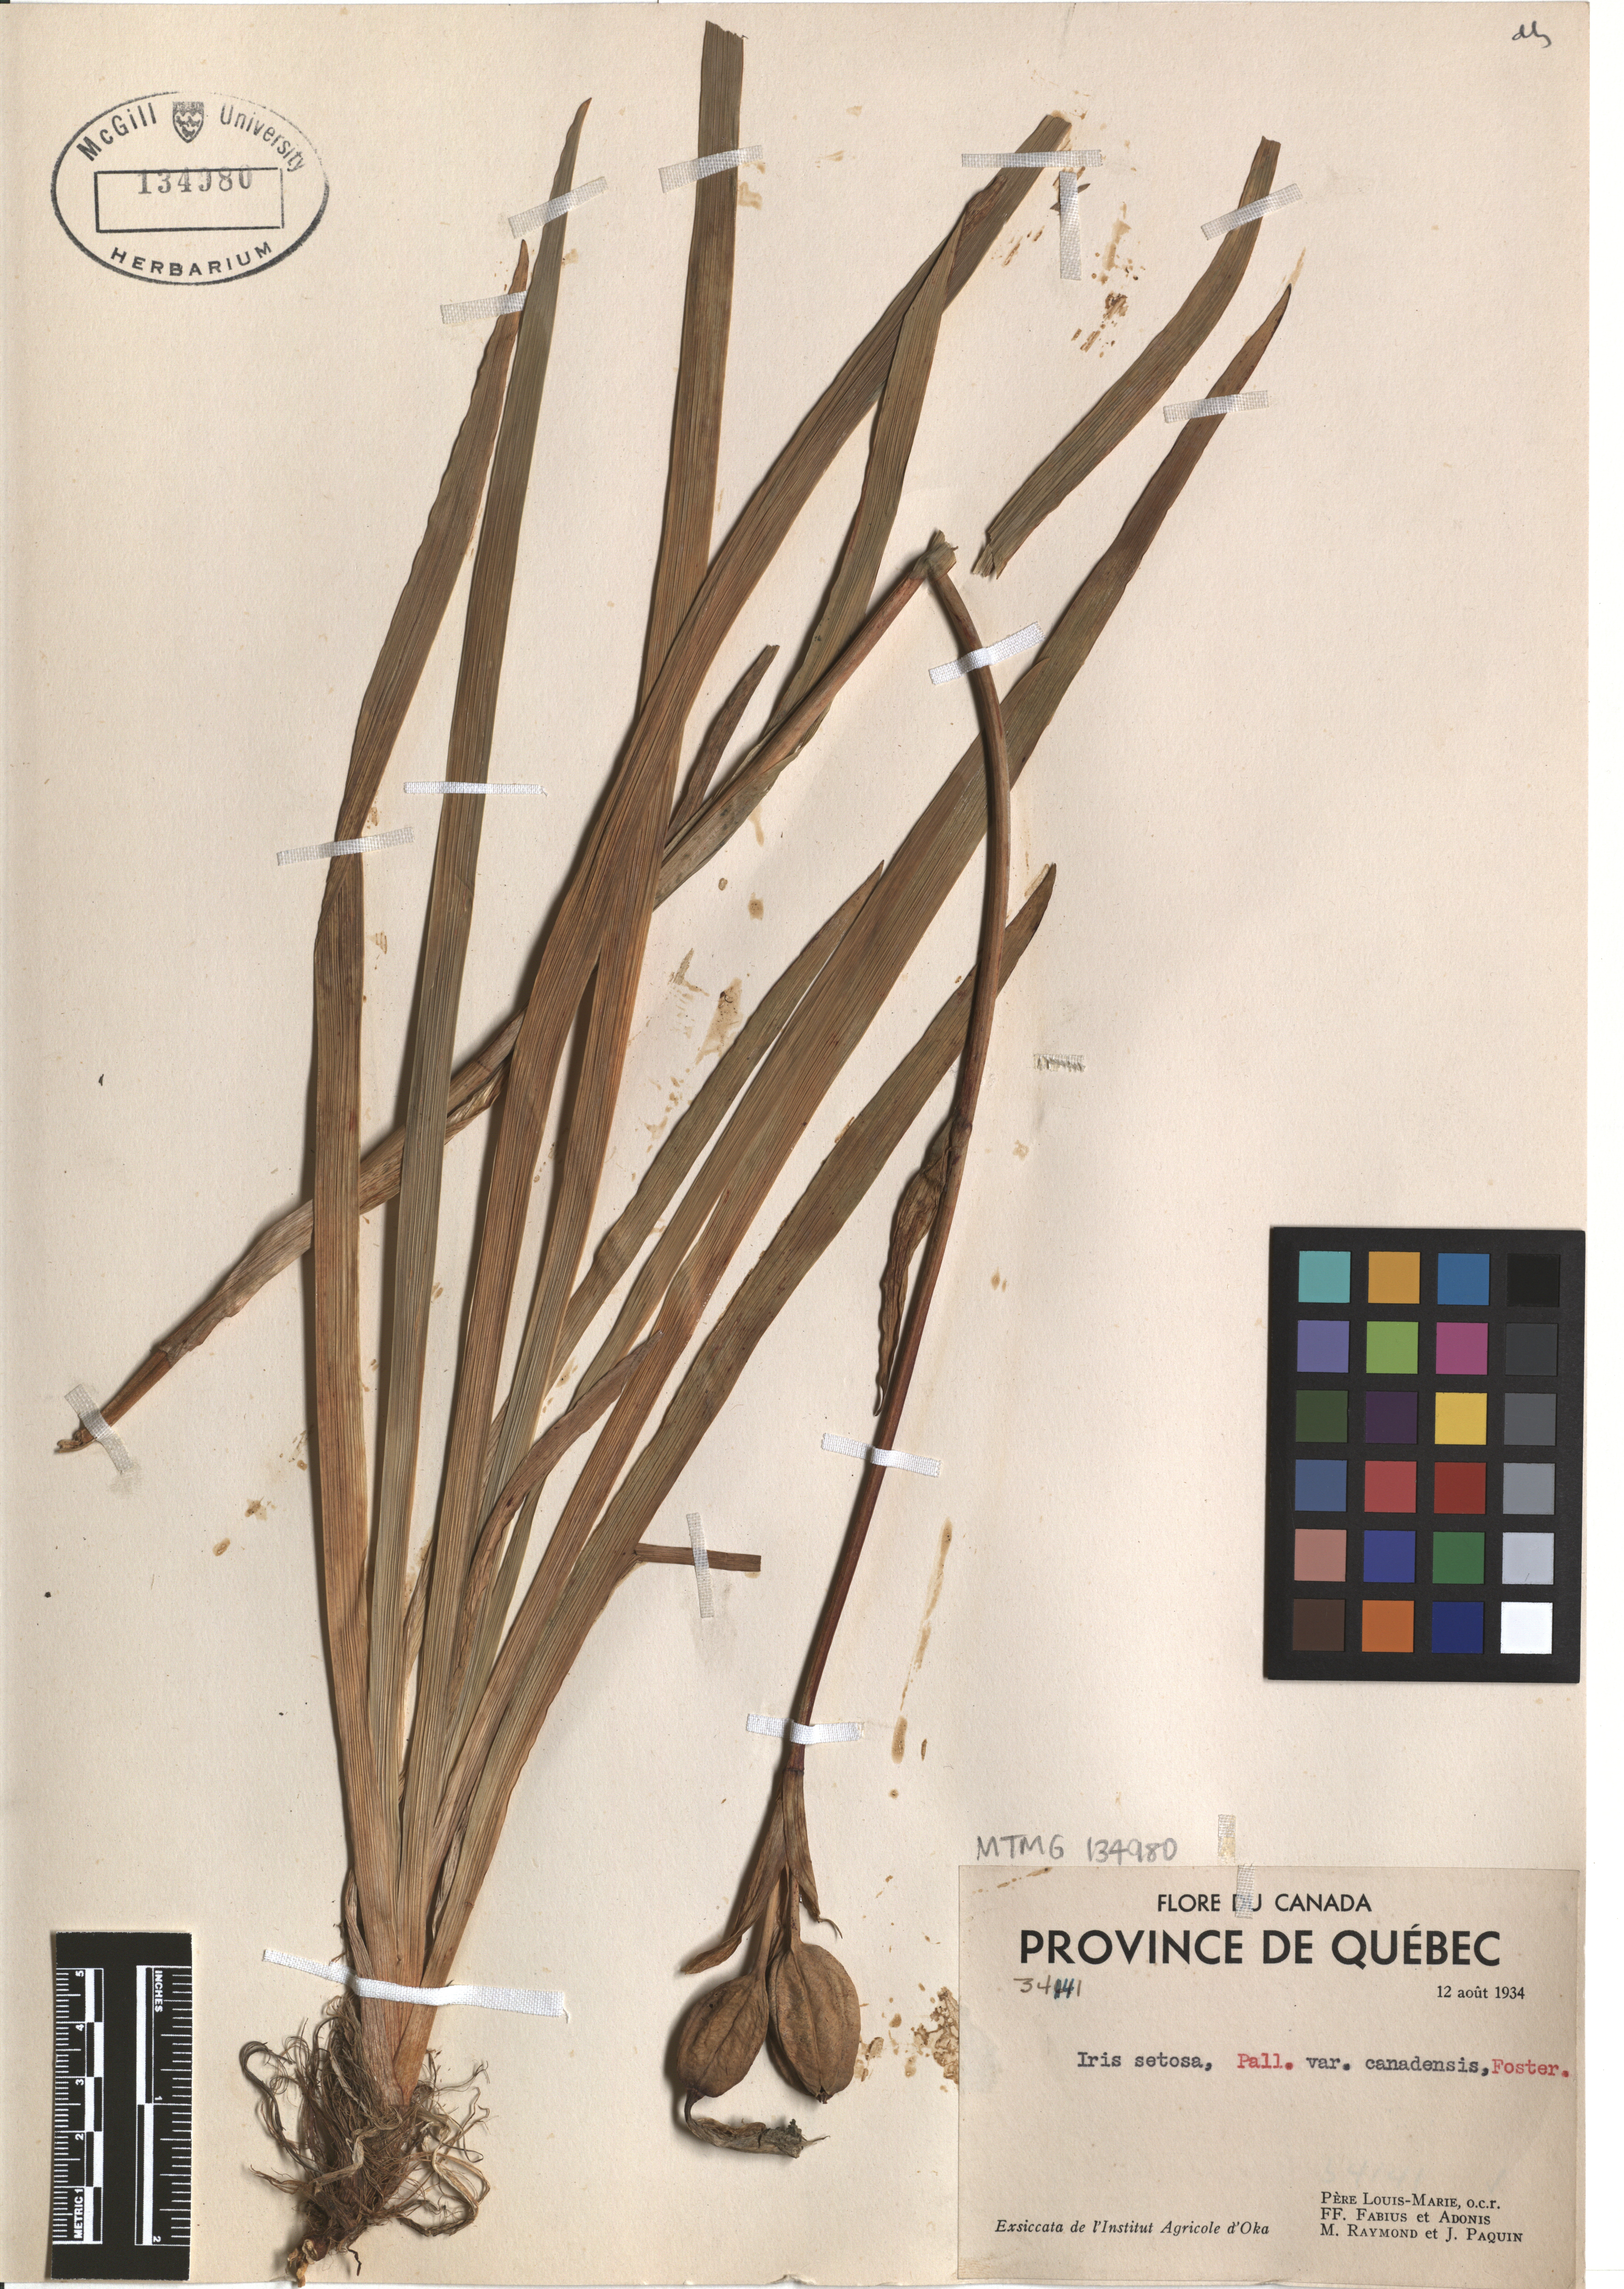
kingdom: Plantae
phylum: Tracheophyta
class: Liliopsida
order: Asparagales
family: Iridaceae
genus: Iris
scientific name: Iris hookeri
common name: Canada beach-head iris
